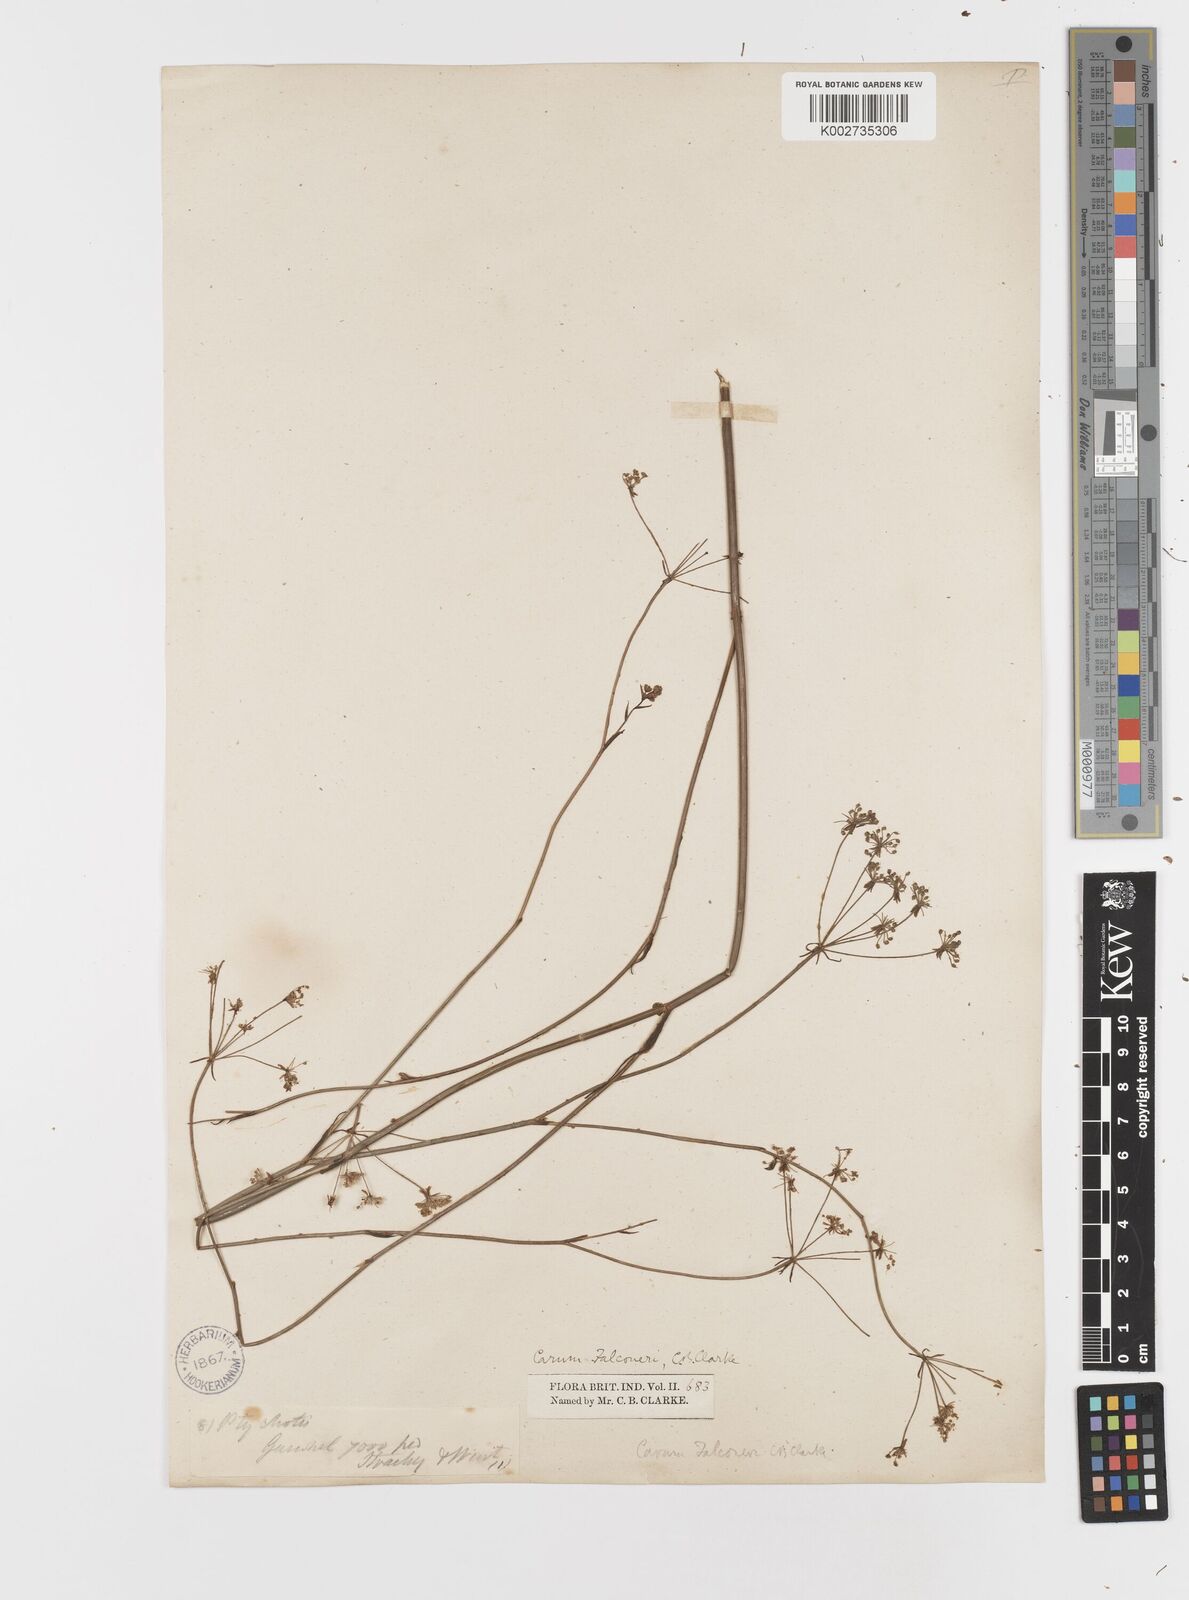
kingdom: Plantae
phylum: Tracheophyta
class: Magnoliopsida
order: Apiales
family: Apiaceae
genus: Trachyspermum
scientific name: Trachyspermum falconeri
